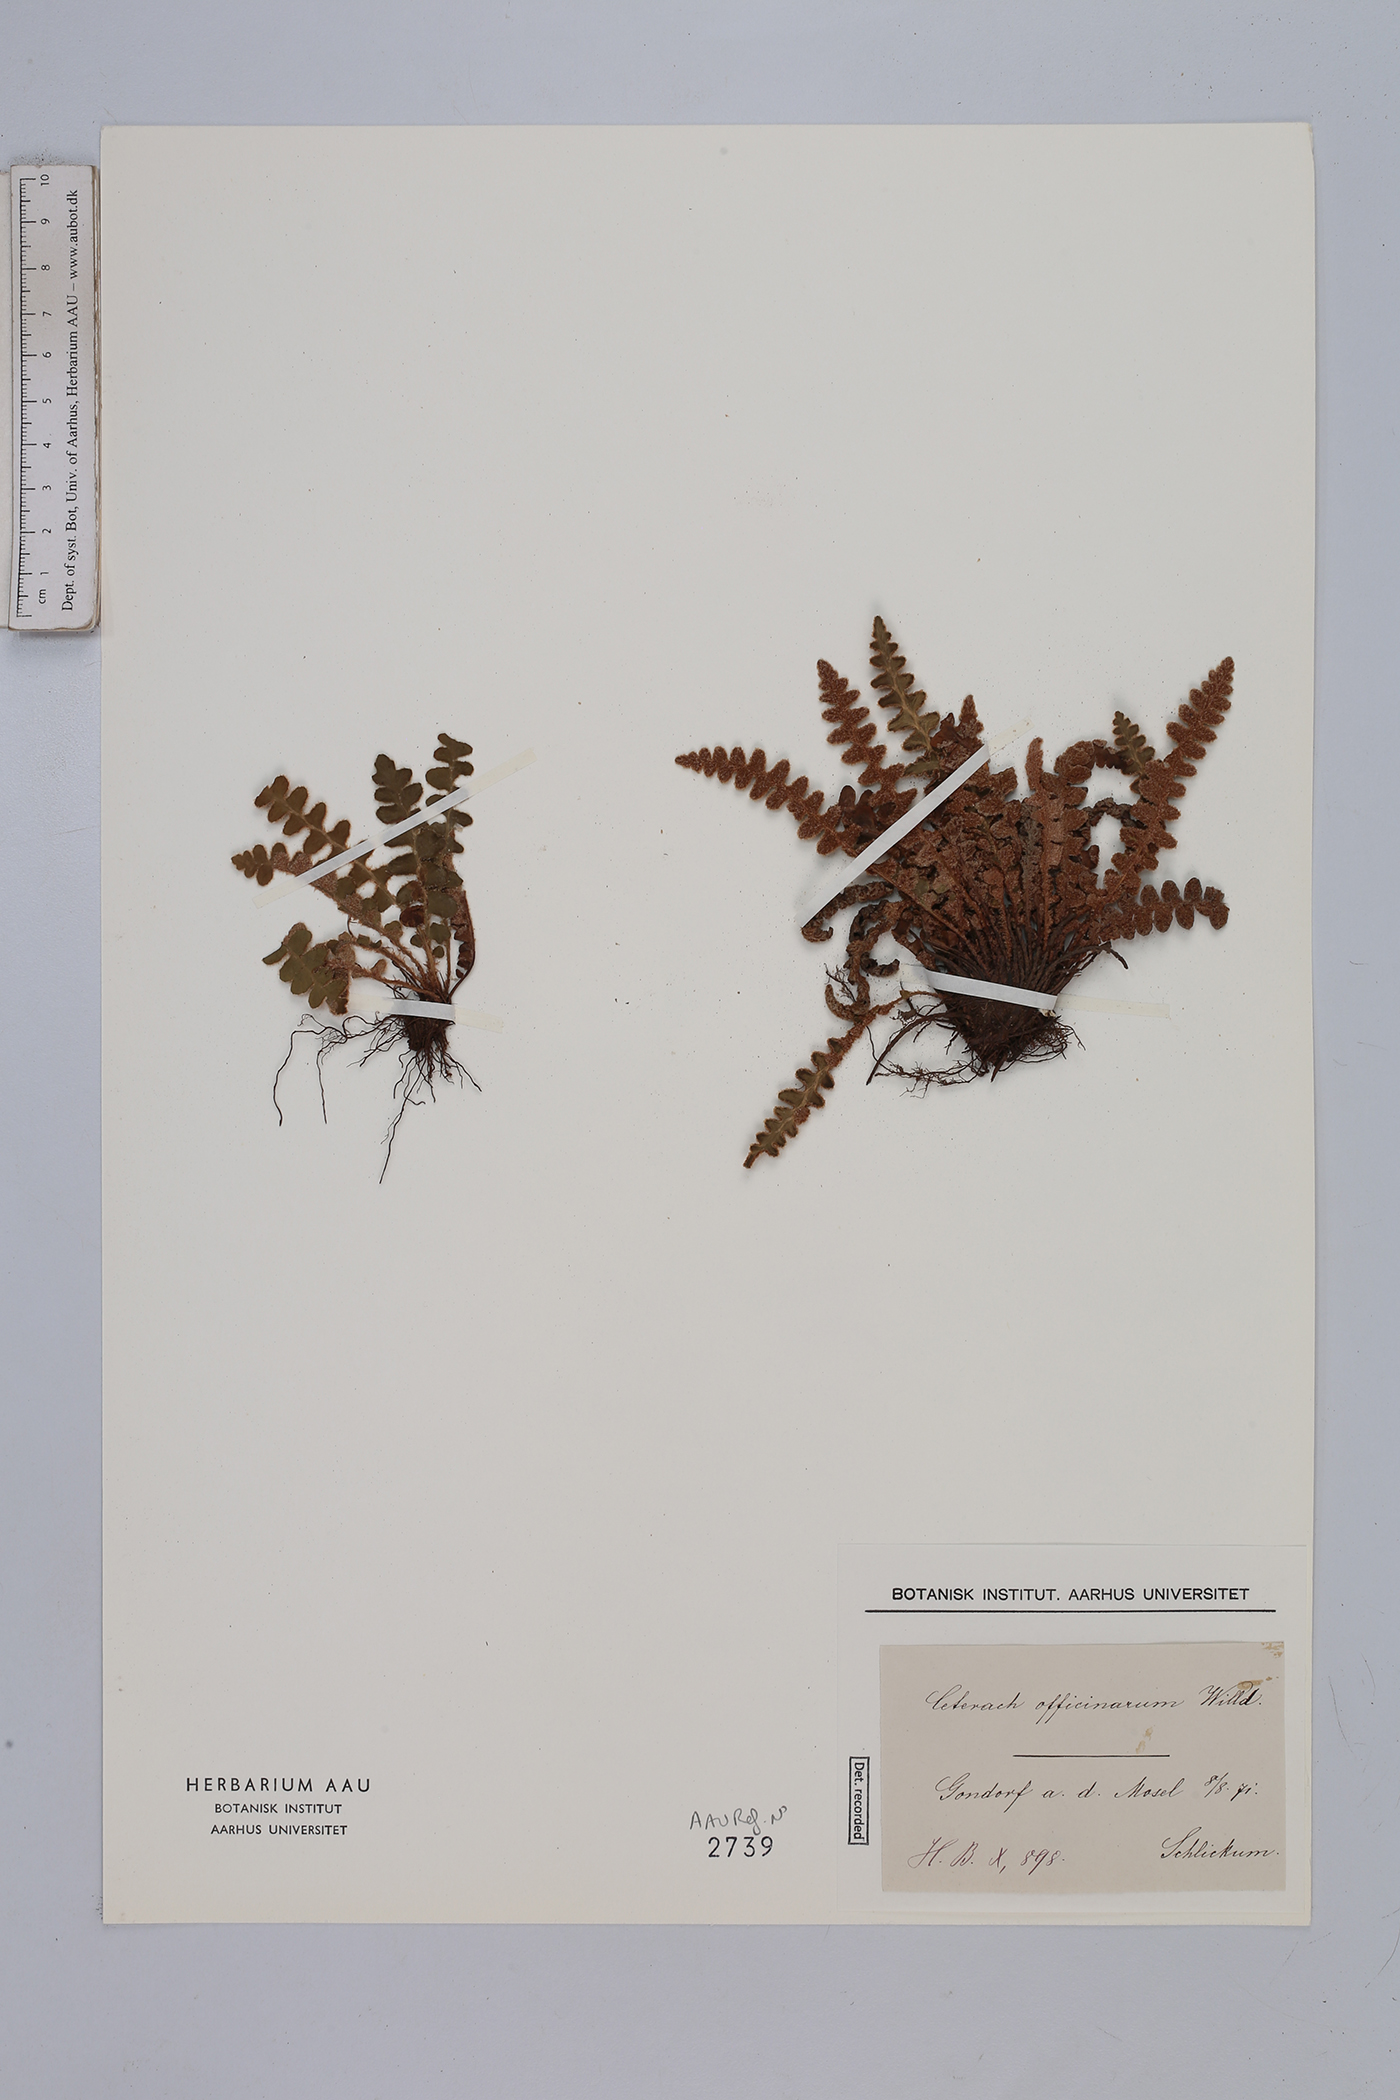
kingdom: Plantae
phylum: Tracheophyta
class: Polypodiopsida
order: Polypodiales
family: Aspleniaceae
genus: Asplenium
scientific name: Asplenium ceterach
